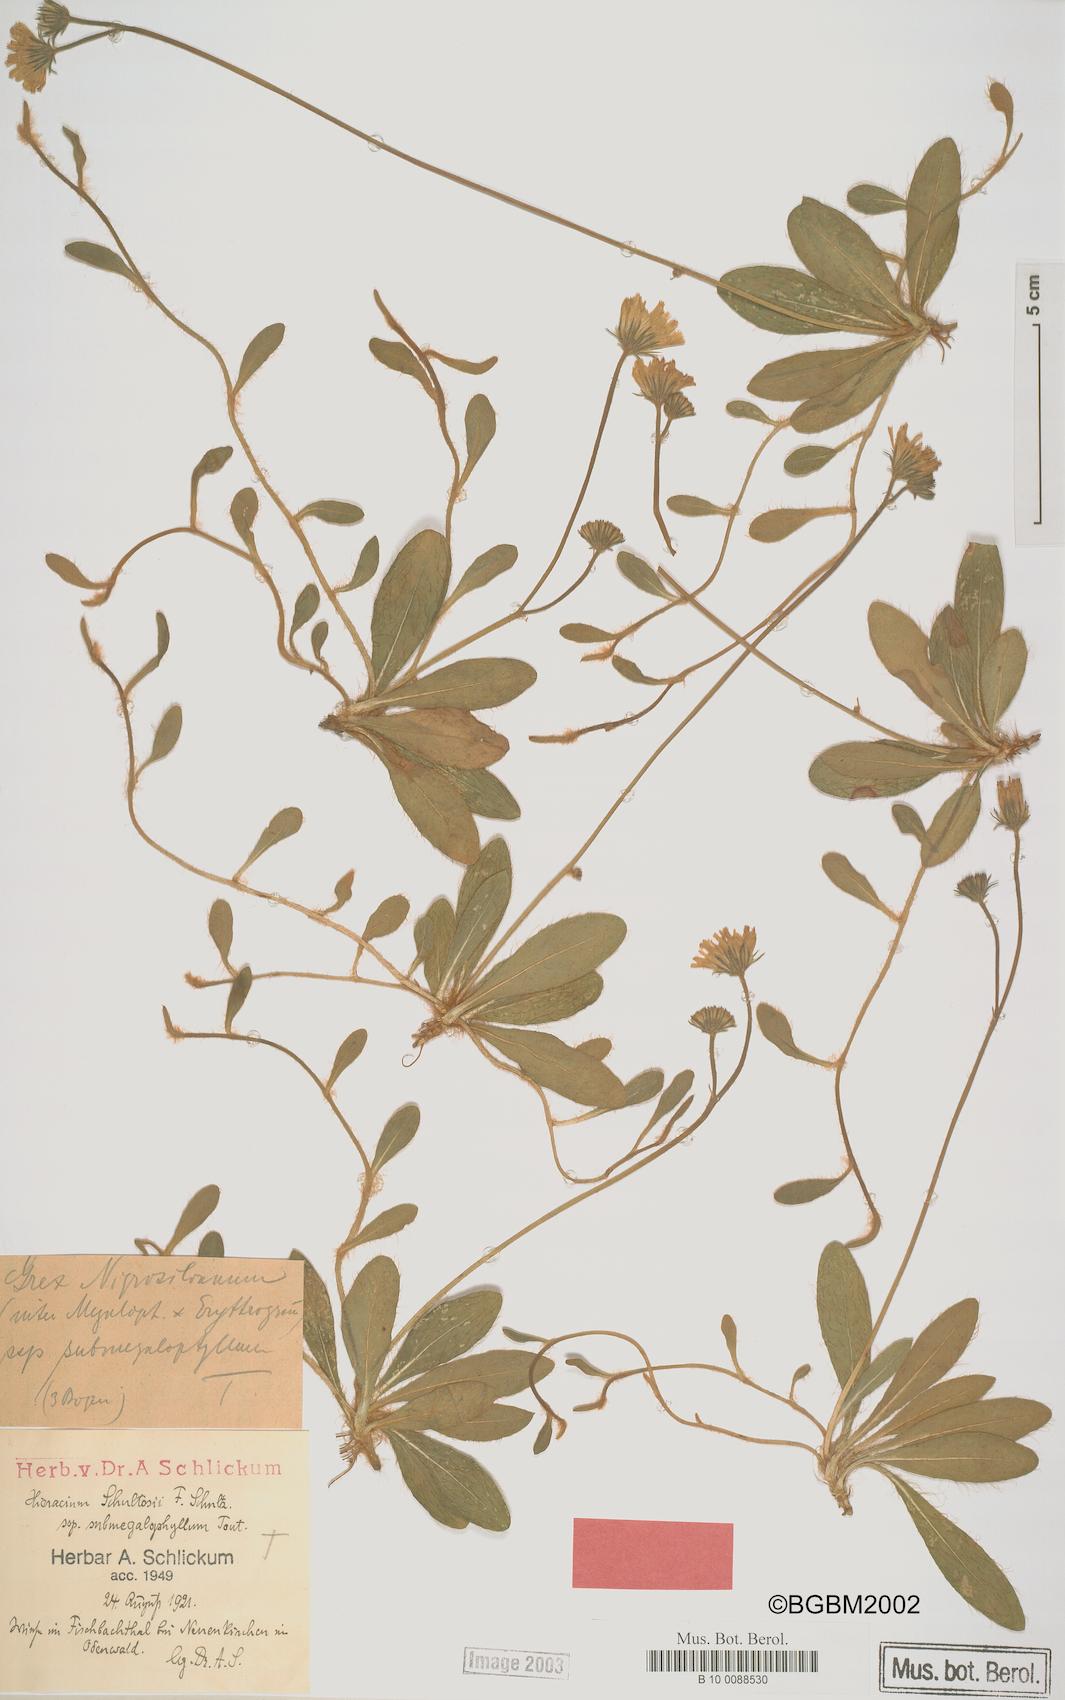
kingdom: Plantae
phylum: Tracheophyta
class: Magnoliopsida
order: Asterales
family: Asteraceae
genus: Pilosella
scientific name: Pilosella schultesii
